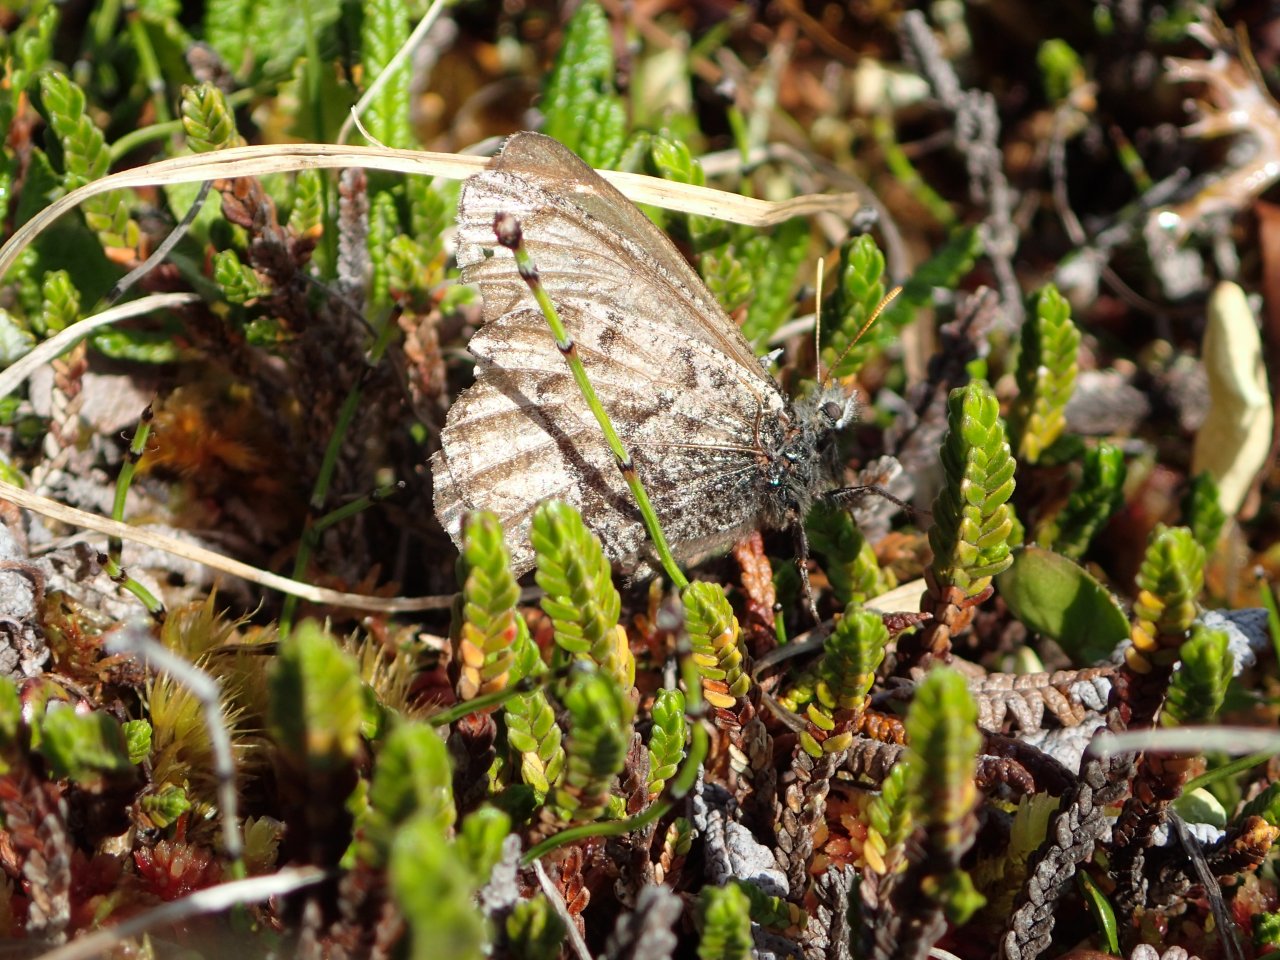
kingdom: Animalia
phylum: Arthropoda
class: Insecta
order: Lepidoptera
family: Nymphalidae
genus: Oeneis
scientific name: Oeneis bore
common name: White-veined Arctic
